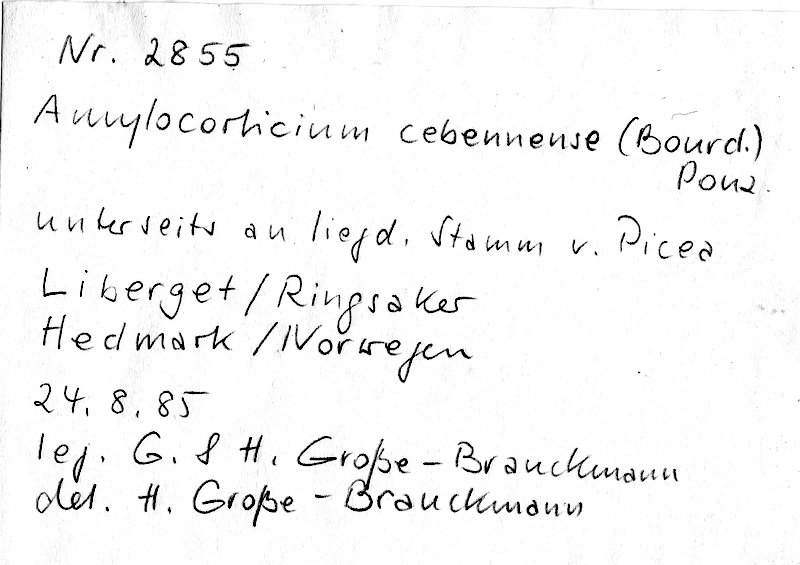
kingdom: Plantae
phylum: Tracheophyta
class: Pinopsida
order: Pinales
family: Pinaceae
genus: Picea
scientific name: Picea
